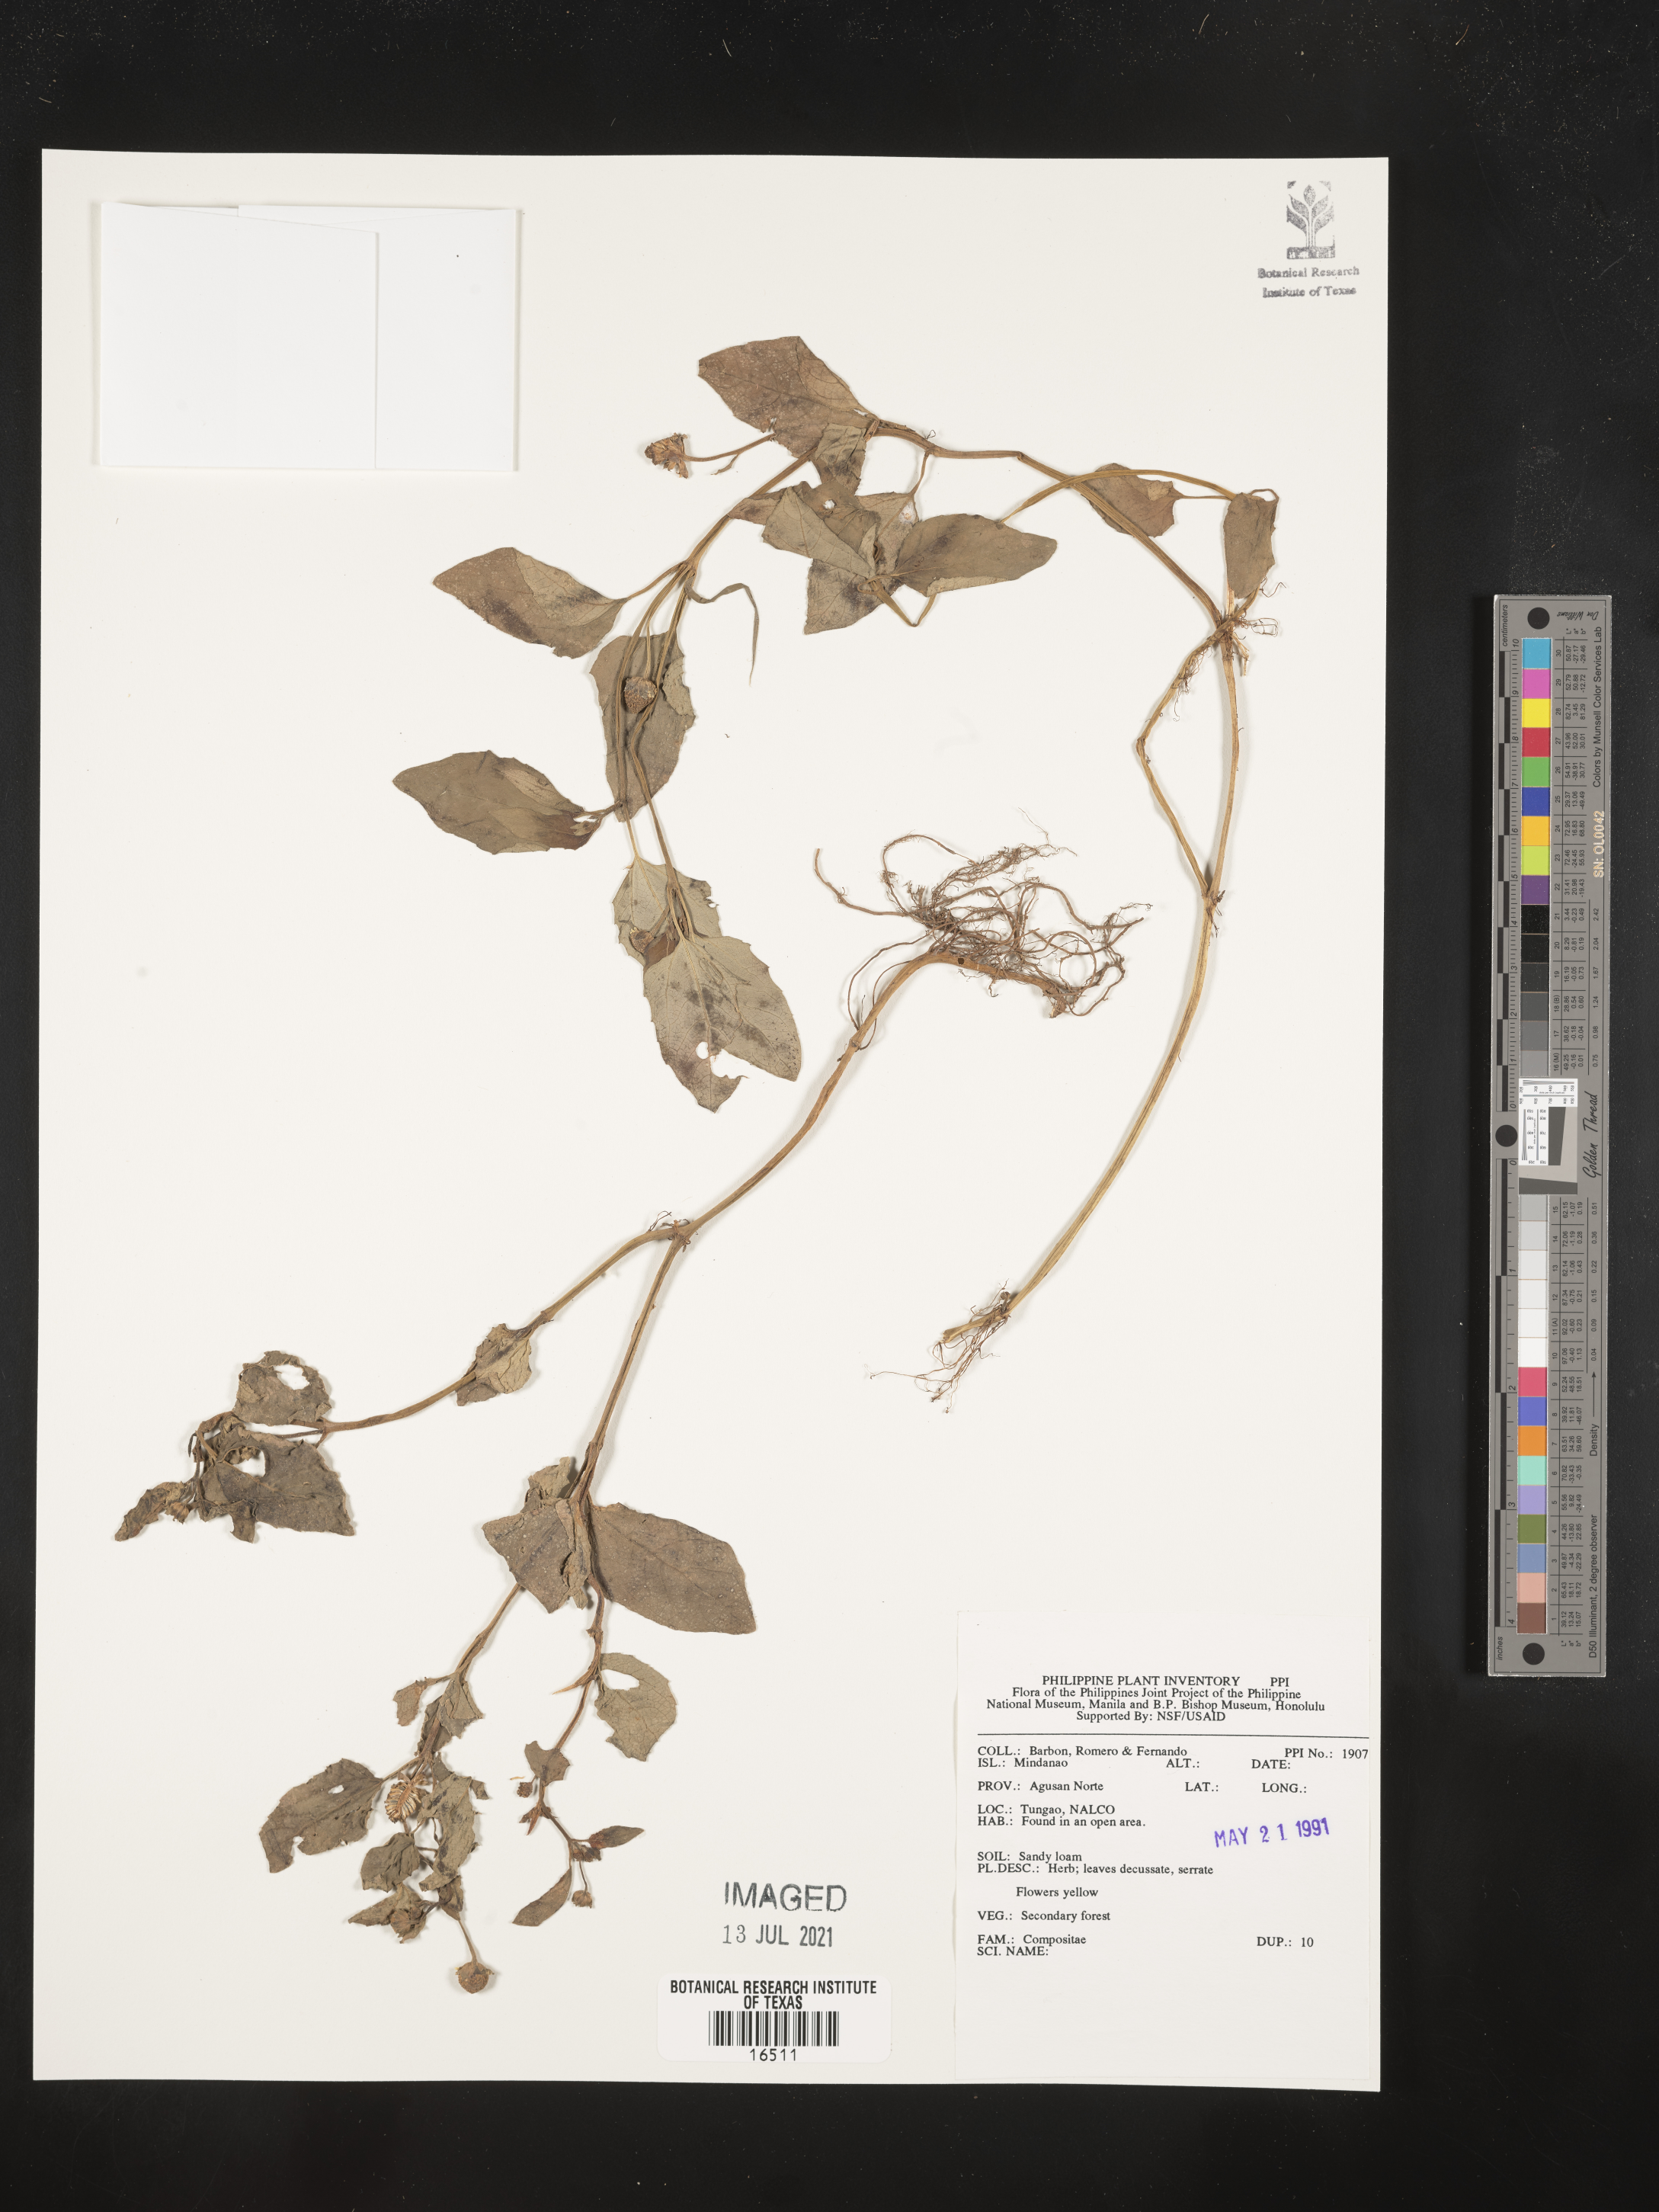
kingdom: Plantae
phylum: Tracheophyta
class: Magnoliopsida
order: Asterales
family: Asteraceae
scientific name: Asteraceae
